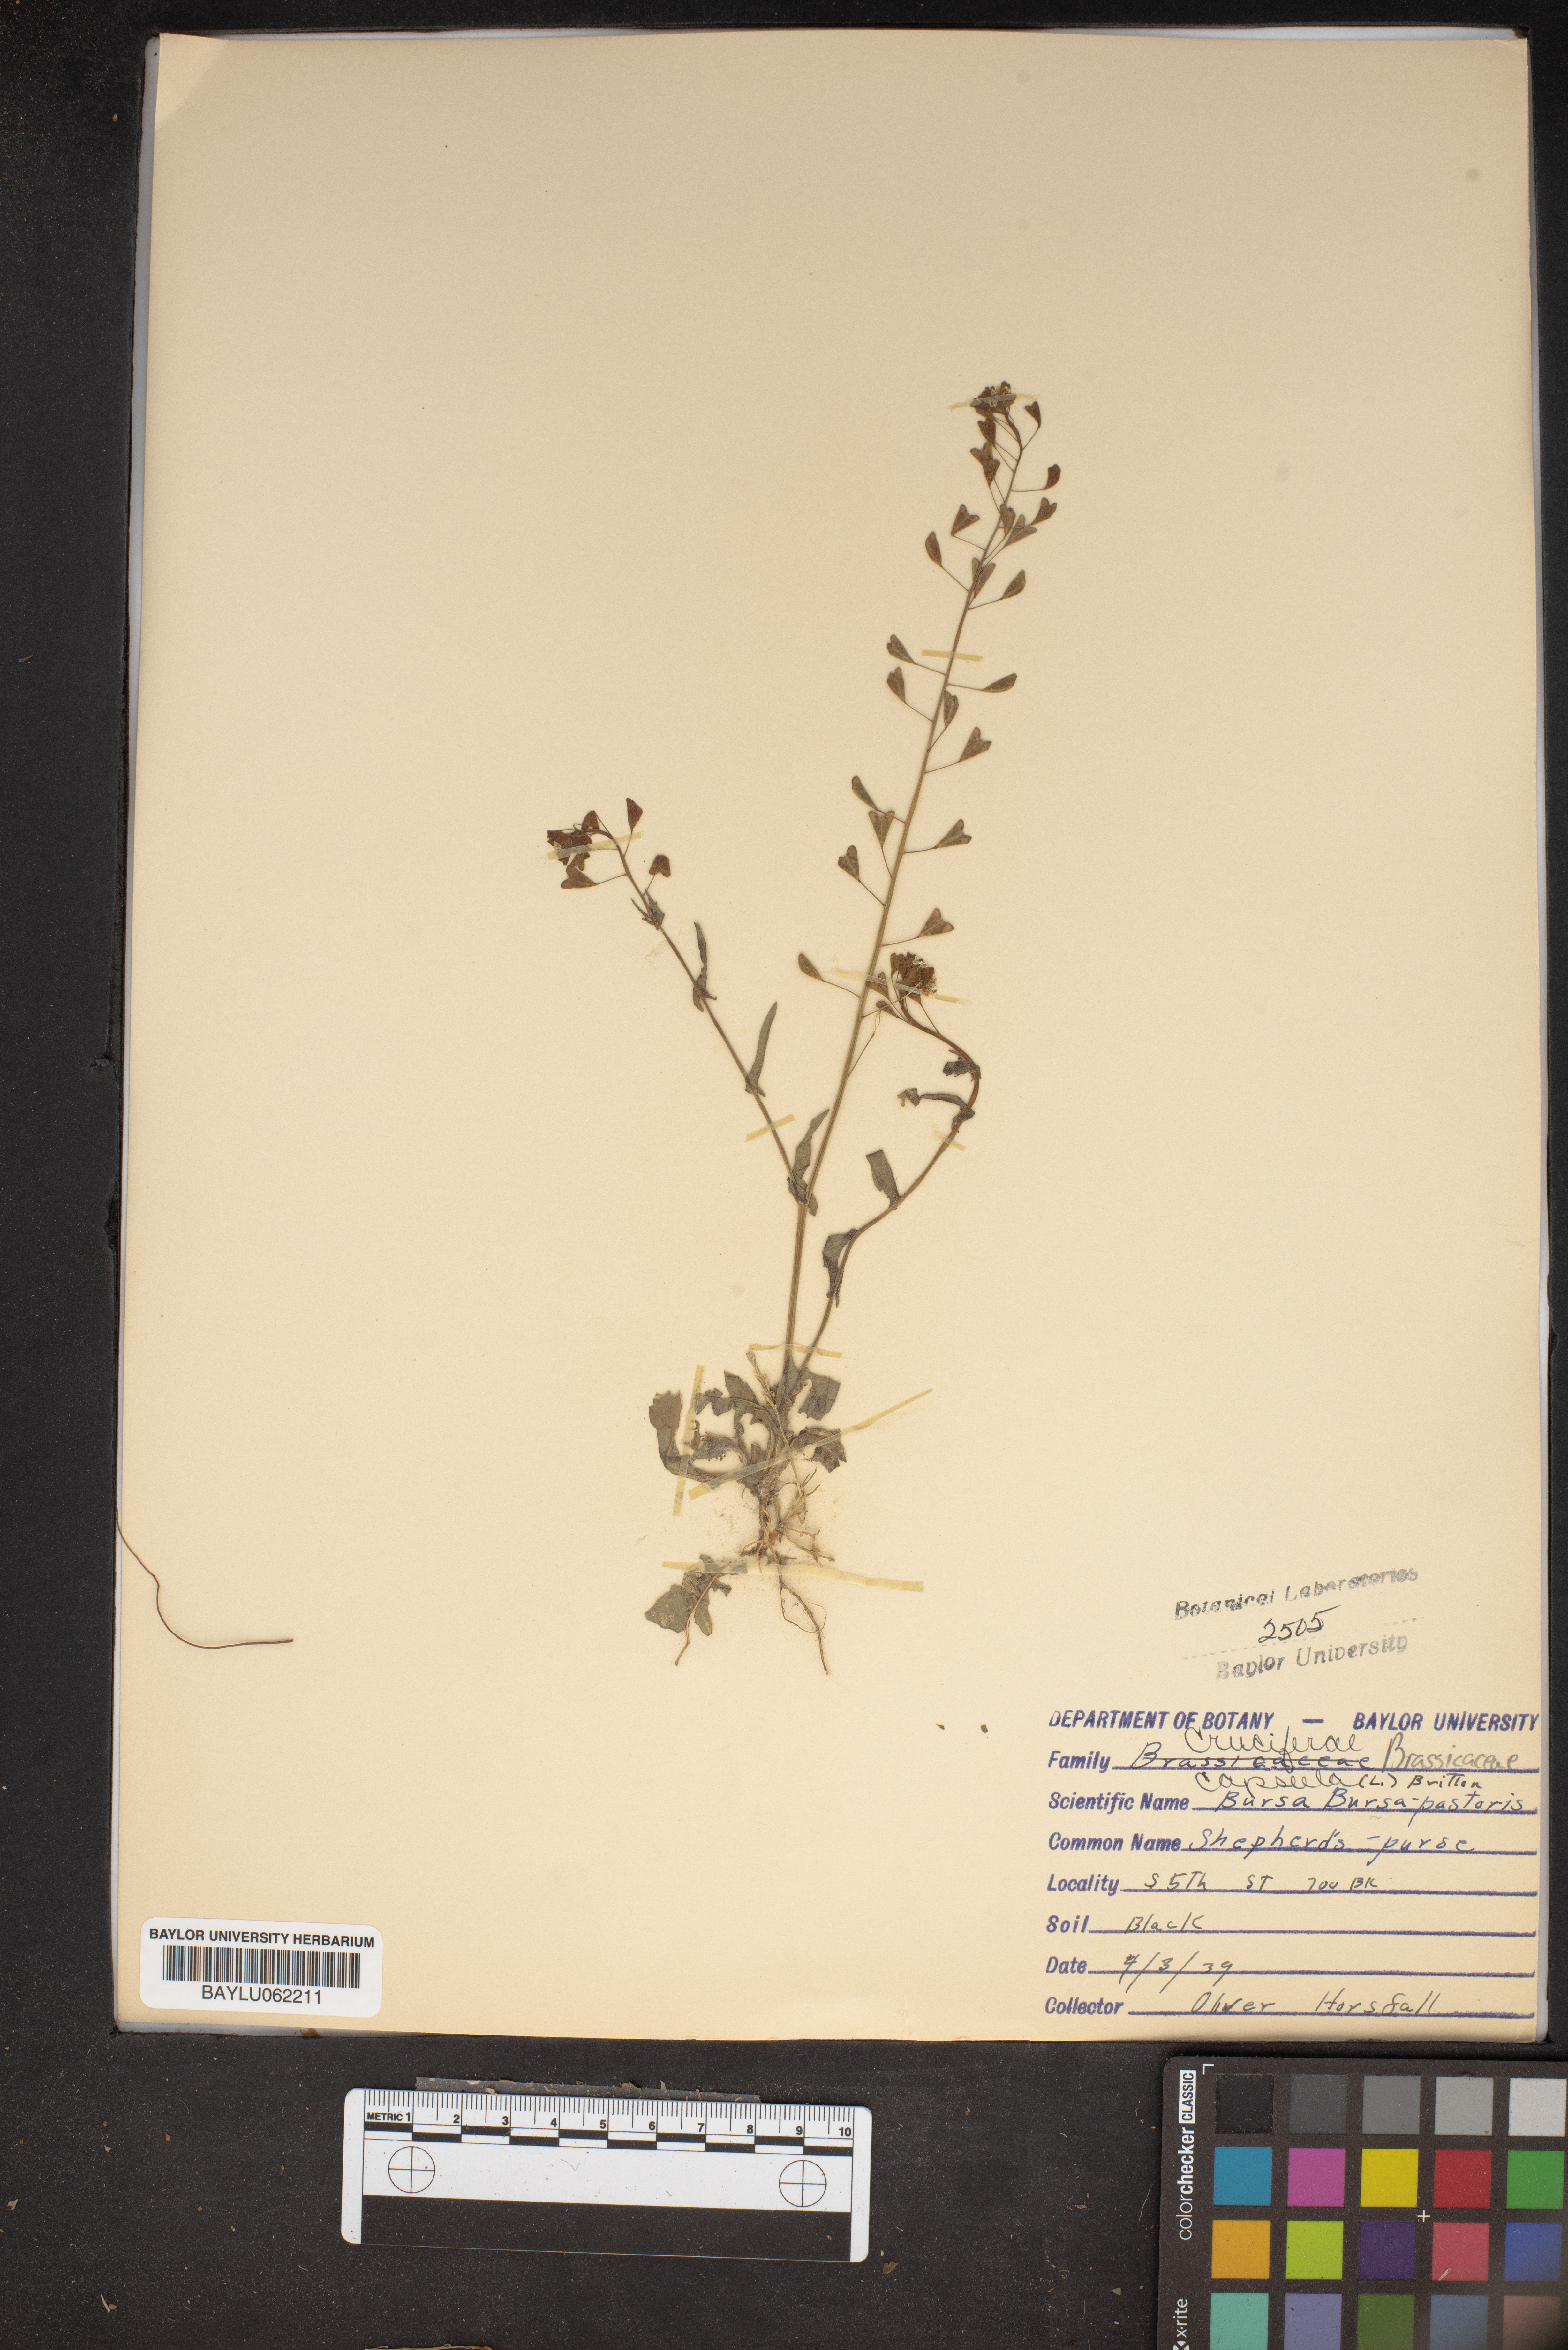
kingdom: Plantae
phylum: Tracheophyta
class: Magnoliopsida
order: Brassicales
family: Brassicaceae
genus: Capsella
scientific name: Capsella bursa-pastoris
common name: Shepherd's purse
